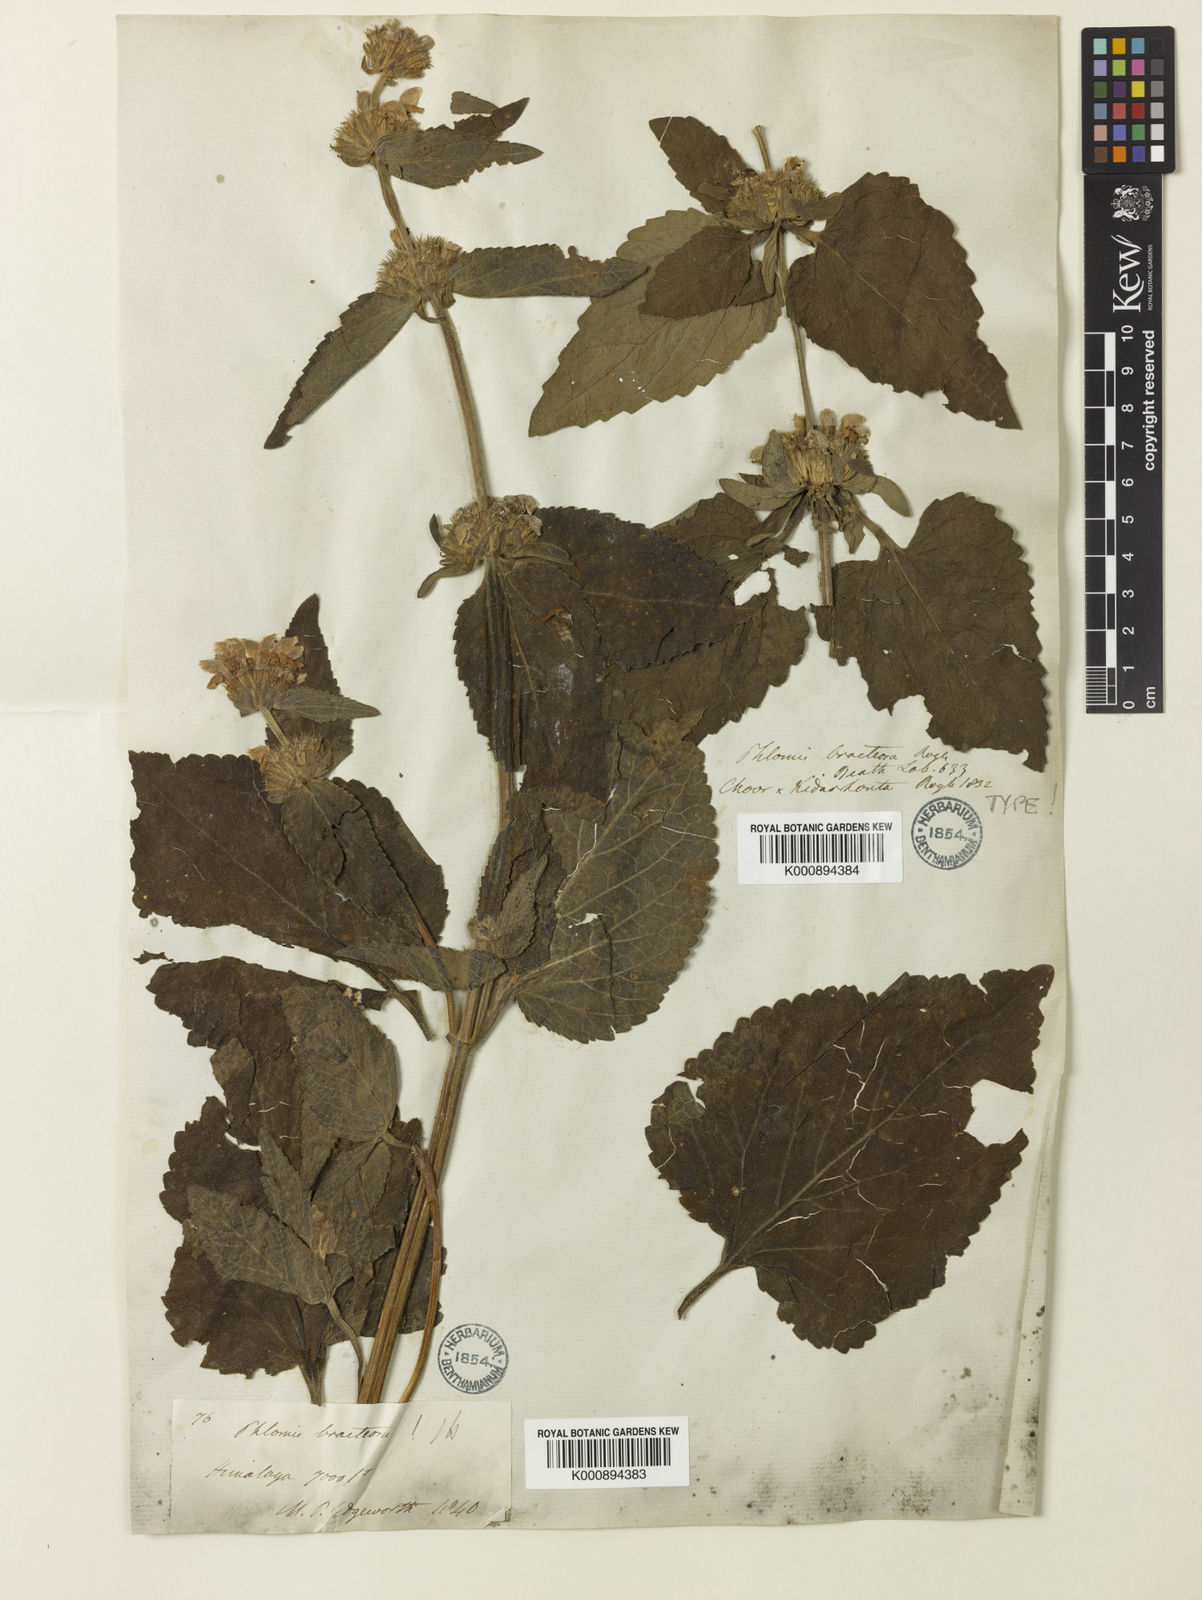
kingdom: Plantae
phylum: Tracheophyta
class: Magnoliopsida
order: Lamiales
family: Lamiaceae
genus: Phlomoides
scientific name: Phlomoides bracteosa
